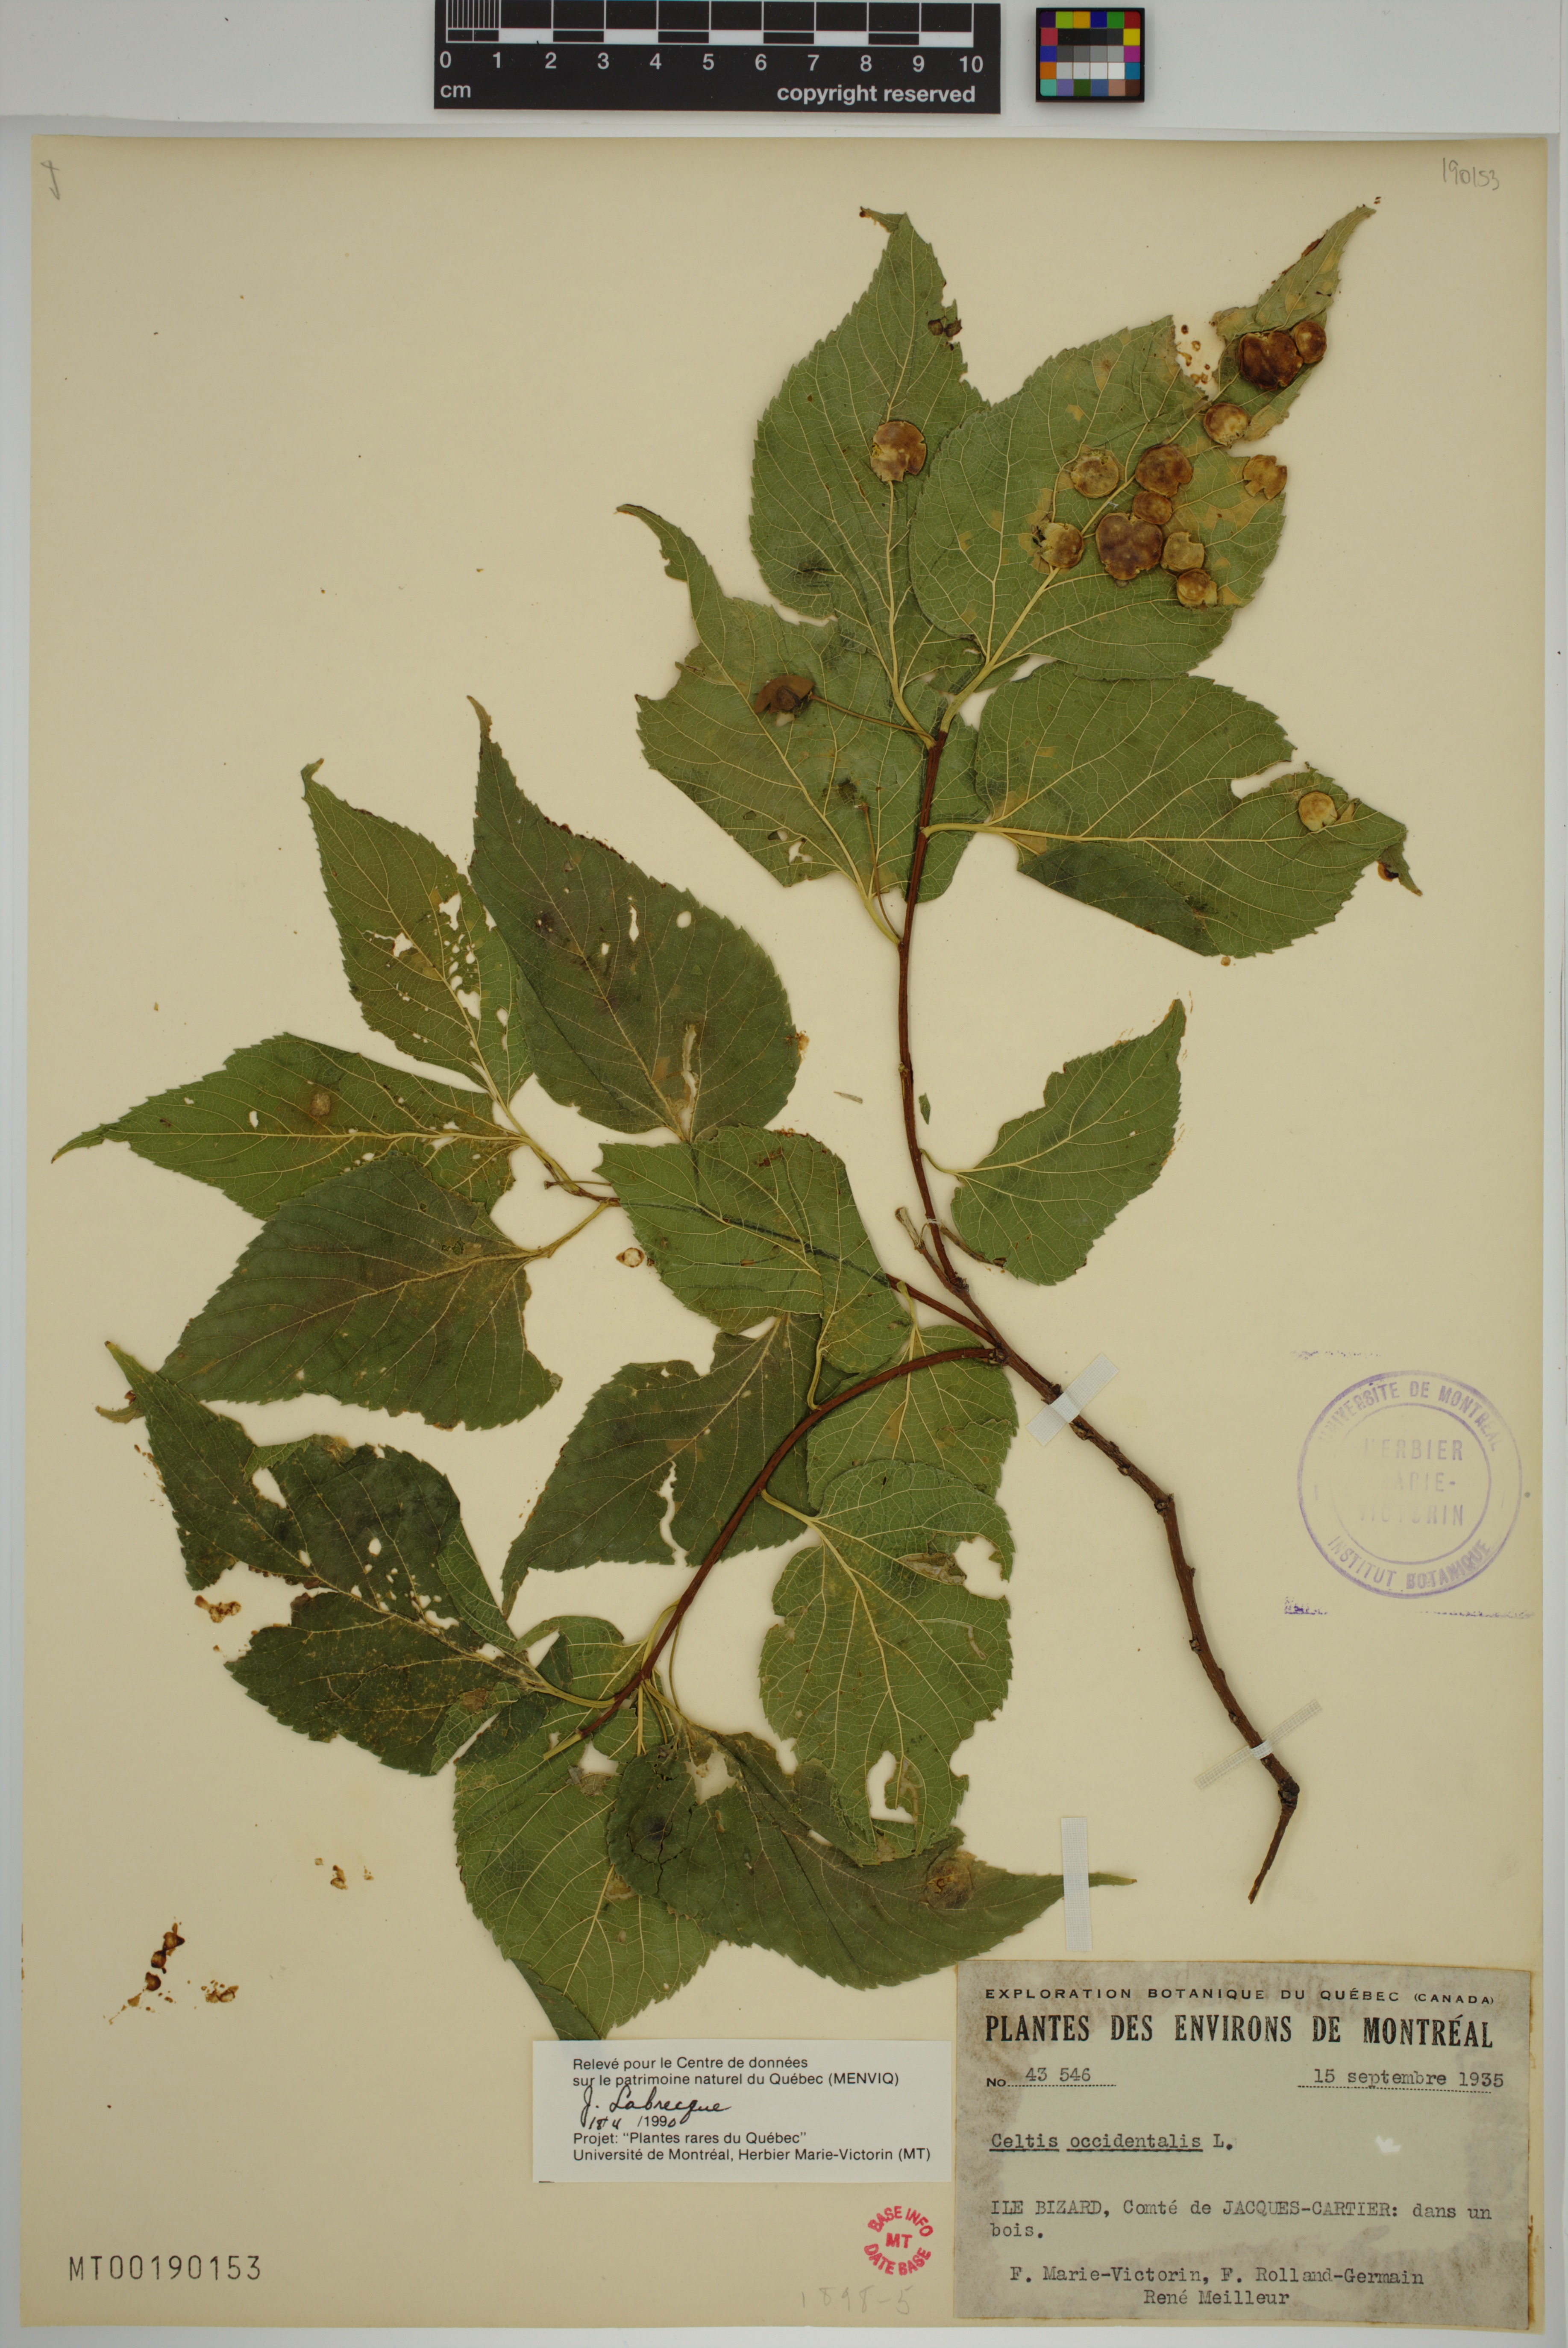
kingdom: Plantae
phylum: Tracheophyta
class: Magnoliopsida
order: Rosales
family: Cannabaceae
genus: Celtis
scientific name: Celtis occidentalis
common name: Common hackberry
